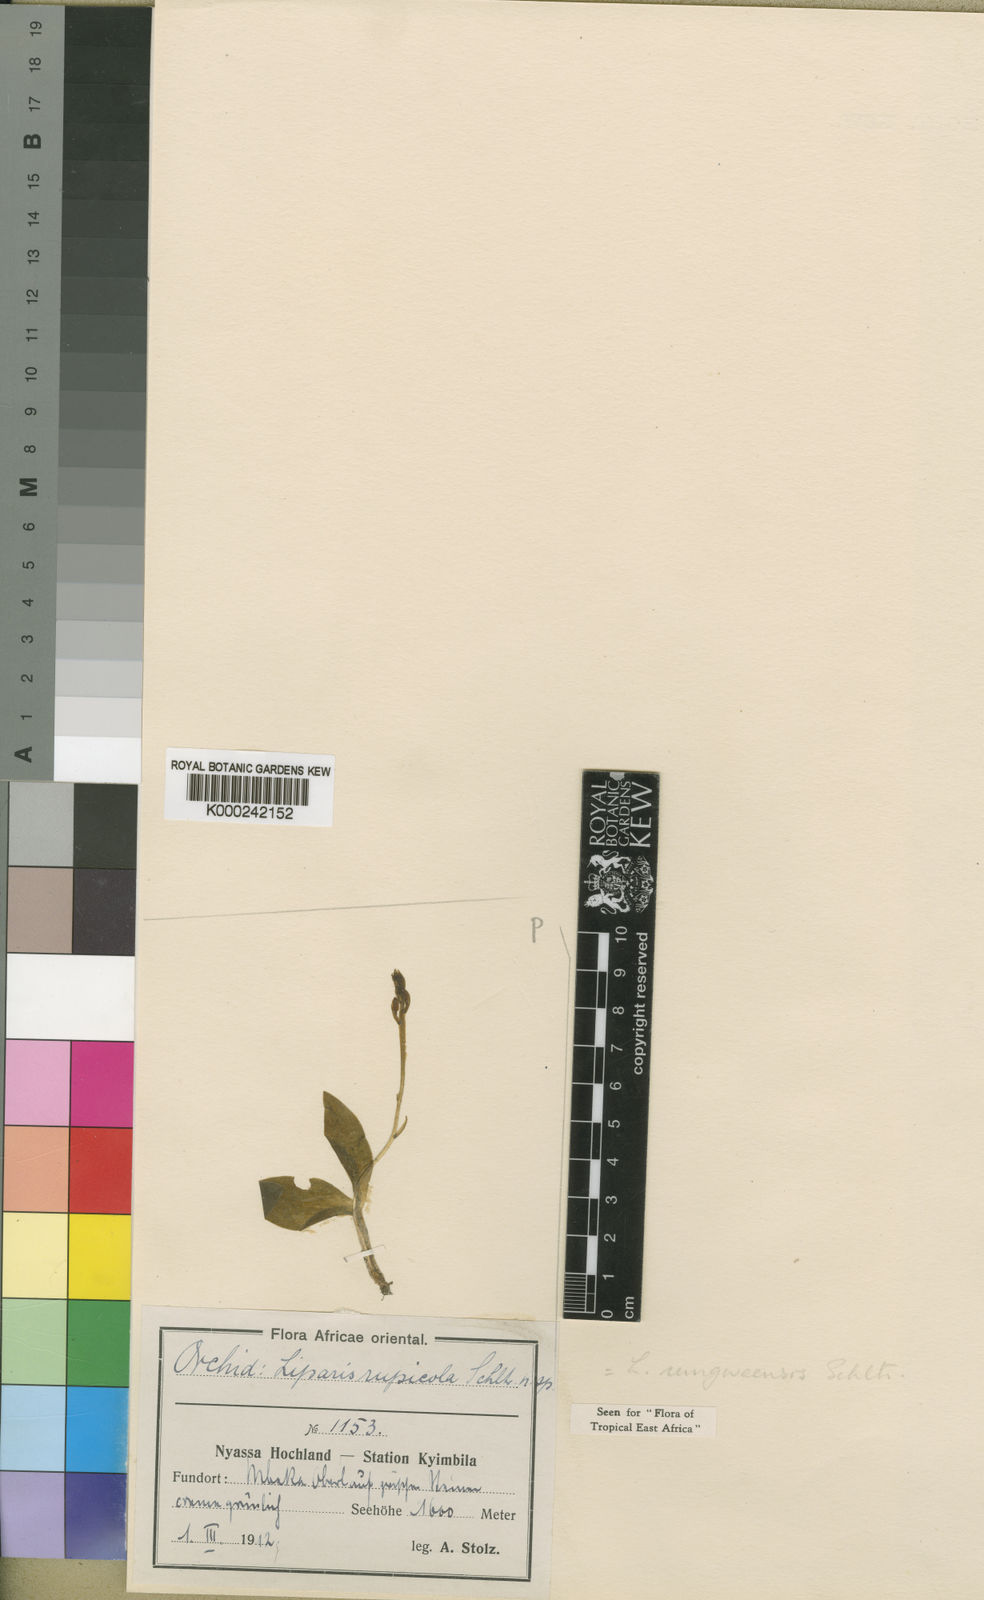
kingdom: Plantae
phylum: Tracheophyta
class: Liliopsida
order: Asparagales
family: Orchidaceae
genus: Liparis
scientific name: Liparis rungweensis
